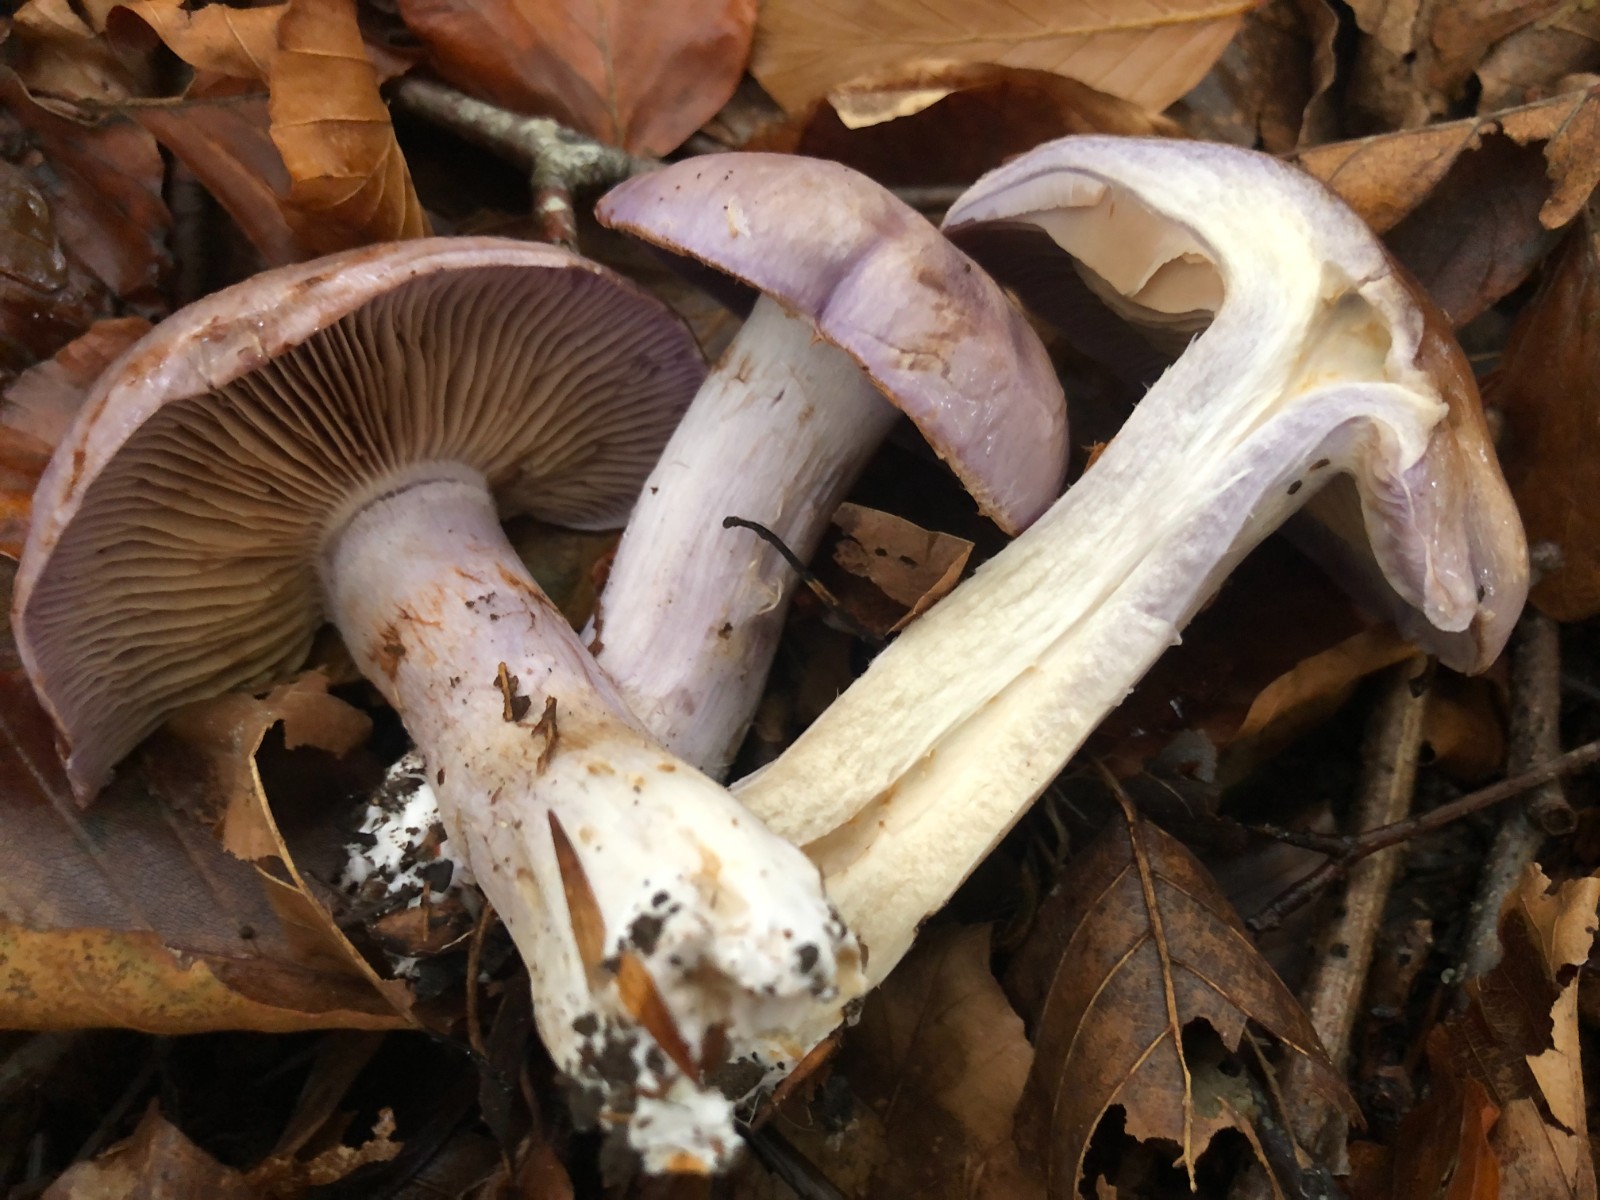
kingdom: Fungi
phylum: Basidiomycota
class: Agaricomycetes
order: Agaricales
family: Cortinariaceae
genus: Cortinarius
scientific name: Cortinarius largus
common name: violetrandet slørhat
